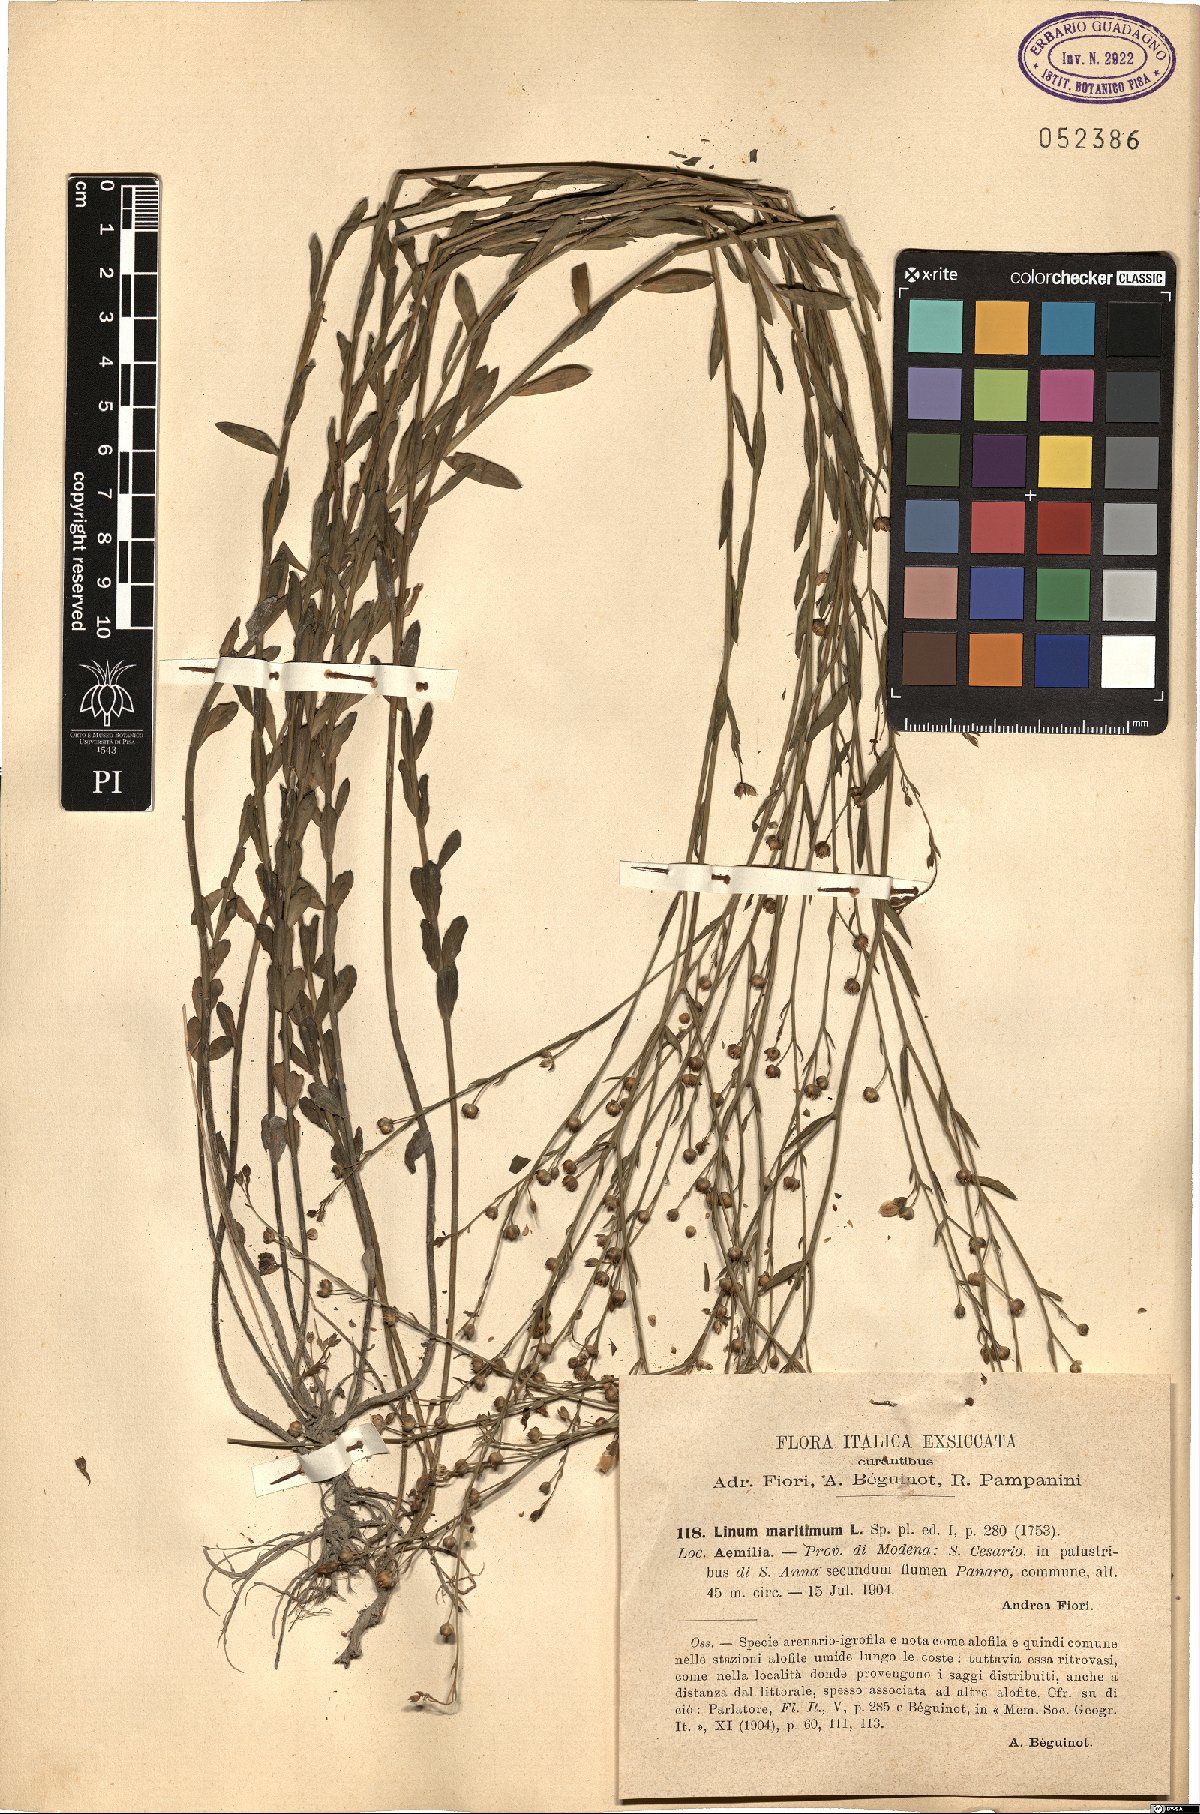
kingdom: Plantae
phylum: Tracheophyta
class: Magnoliopsida
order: Malpighiales
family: Linaceae
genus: Linum
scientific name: Linum maritimum
